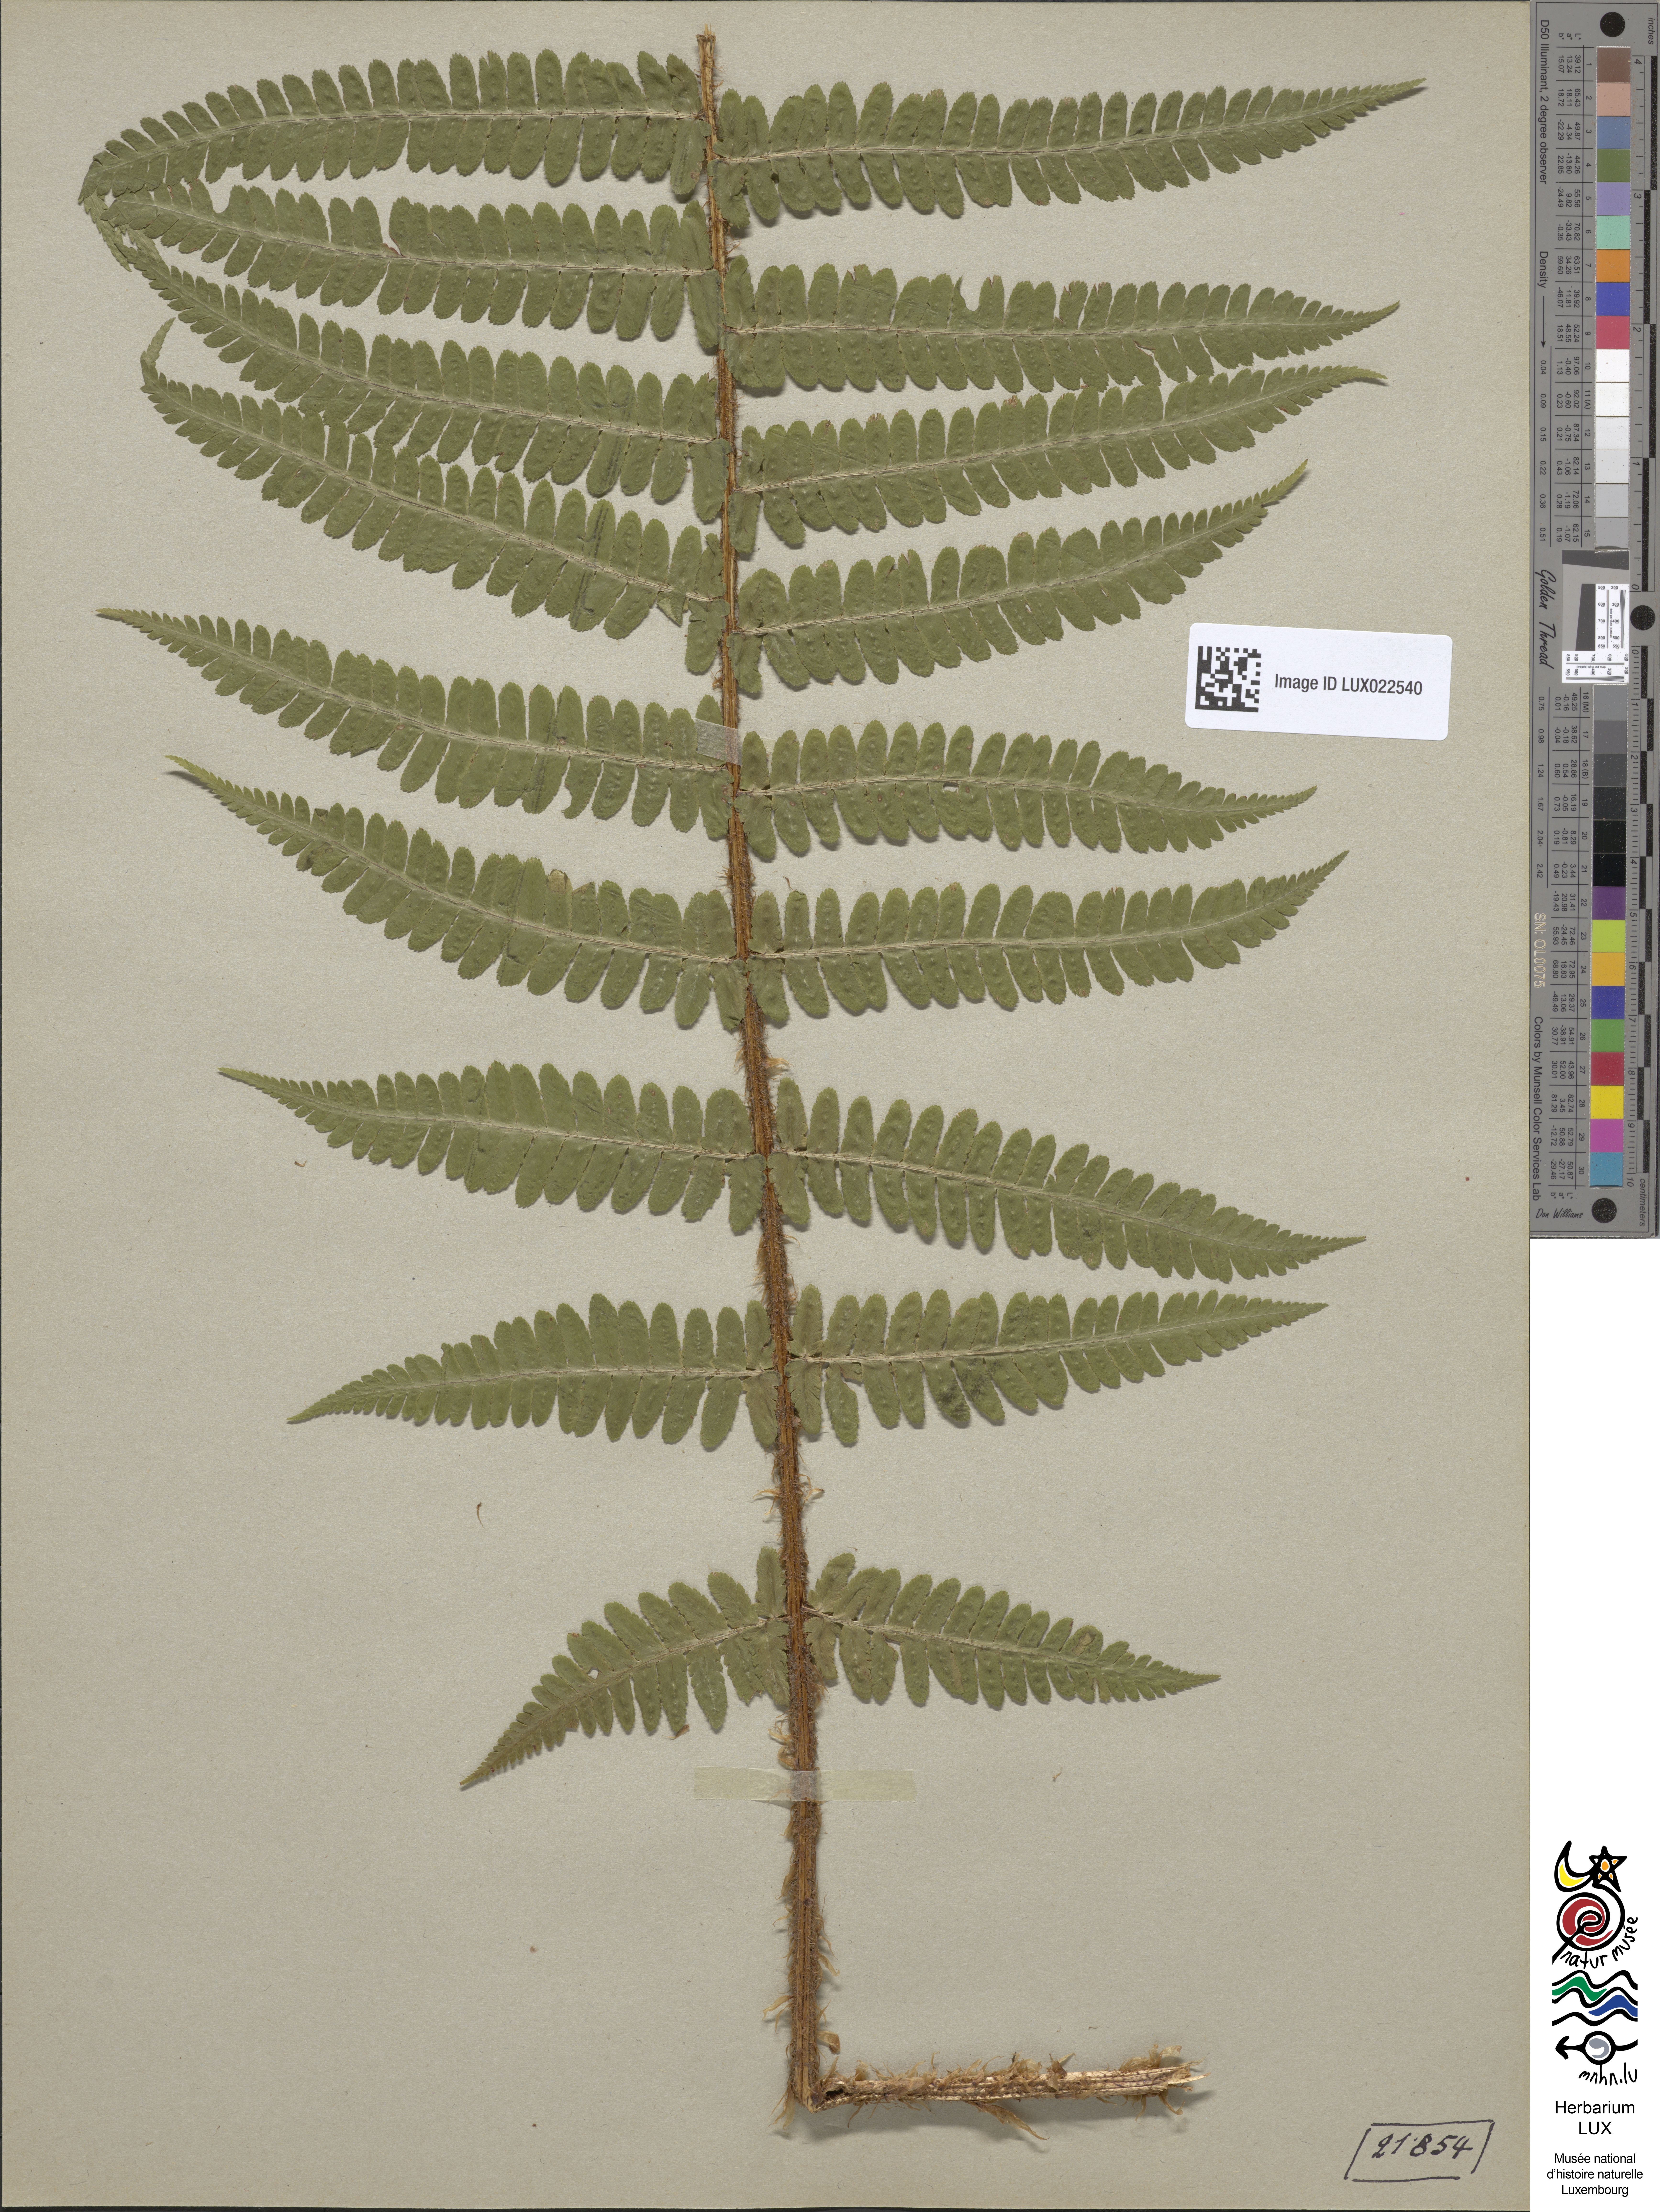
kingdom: Plantae
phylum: Tracheophyta
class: Polypodiopsida
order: Polypodiales
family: Dryopteridaceae
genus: Dryopteris
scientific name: Dryopteris borreri
